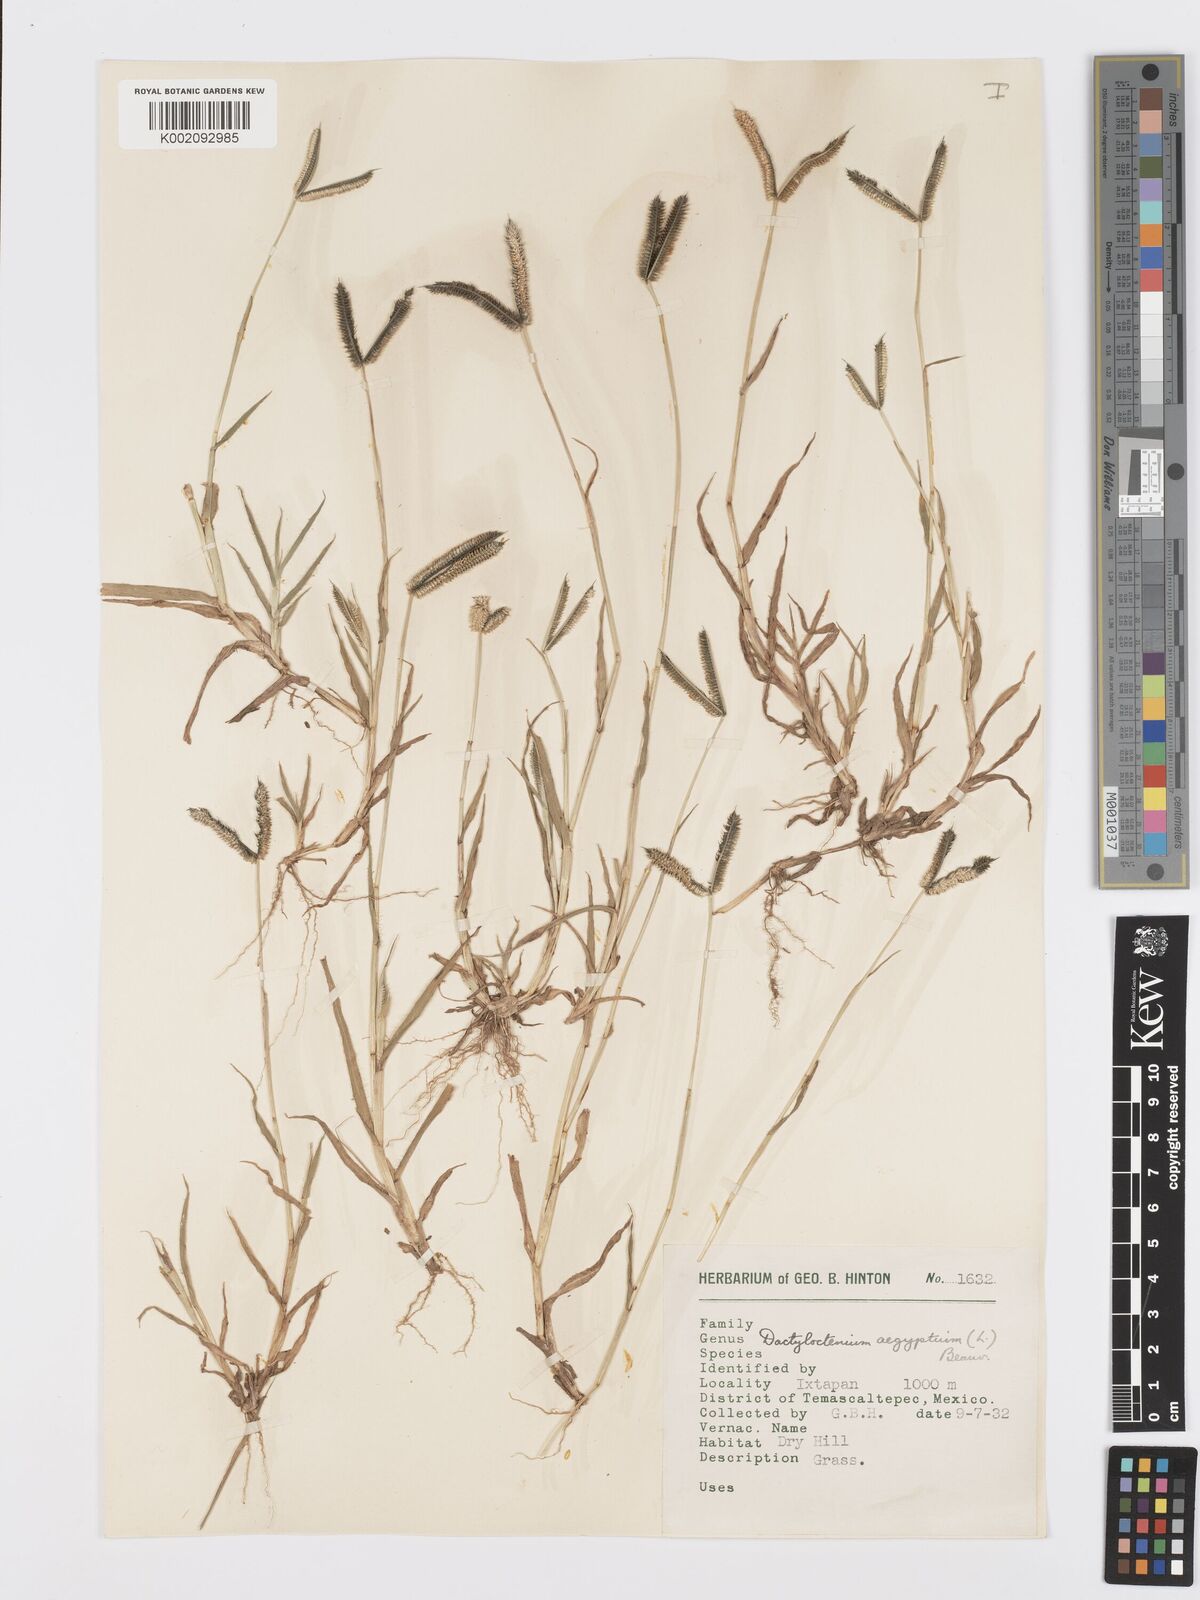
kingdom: Plantae
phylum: Tracheophyta
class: Liliopsida
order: Poales
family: Poaceae
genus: Dactyloctenium
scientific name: Dactyloctenium aegyptium
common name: Egyptian grass
